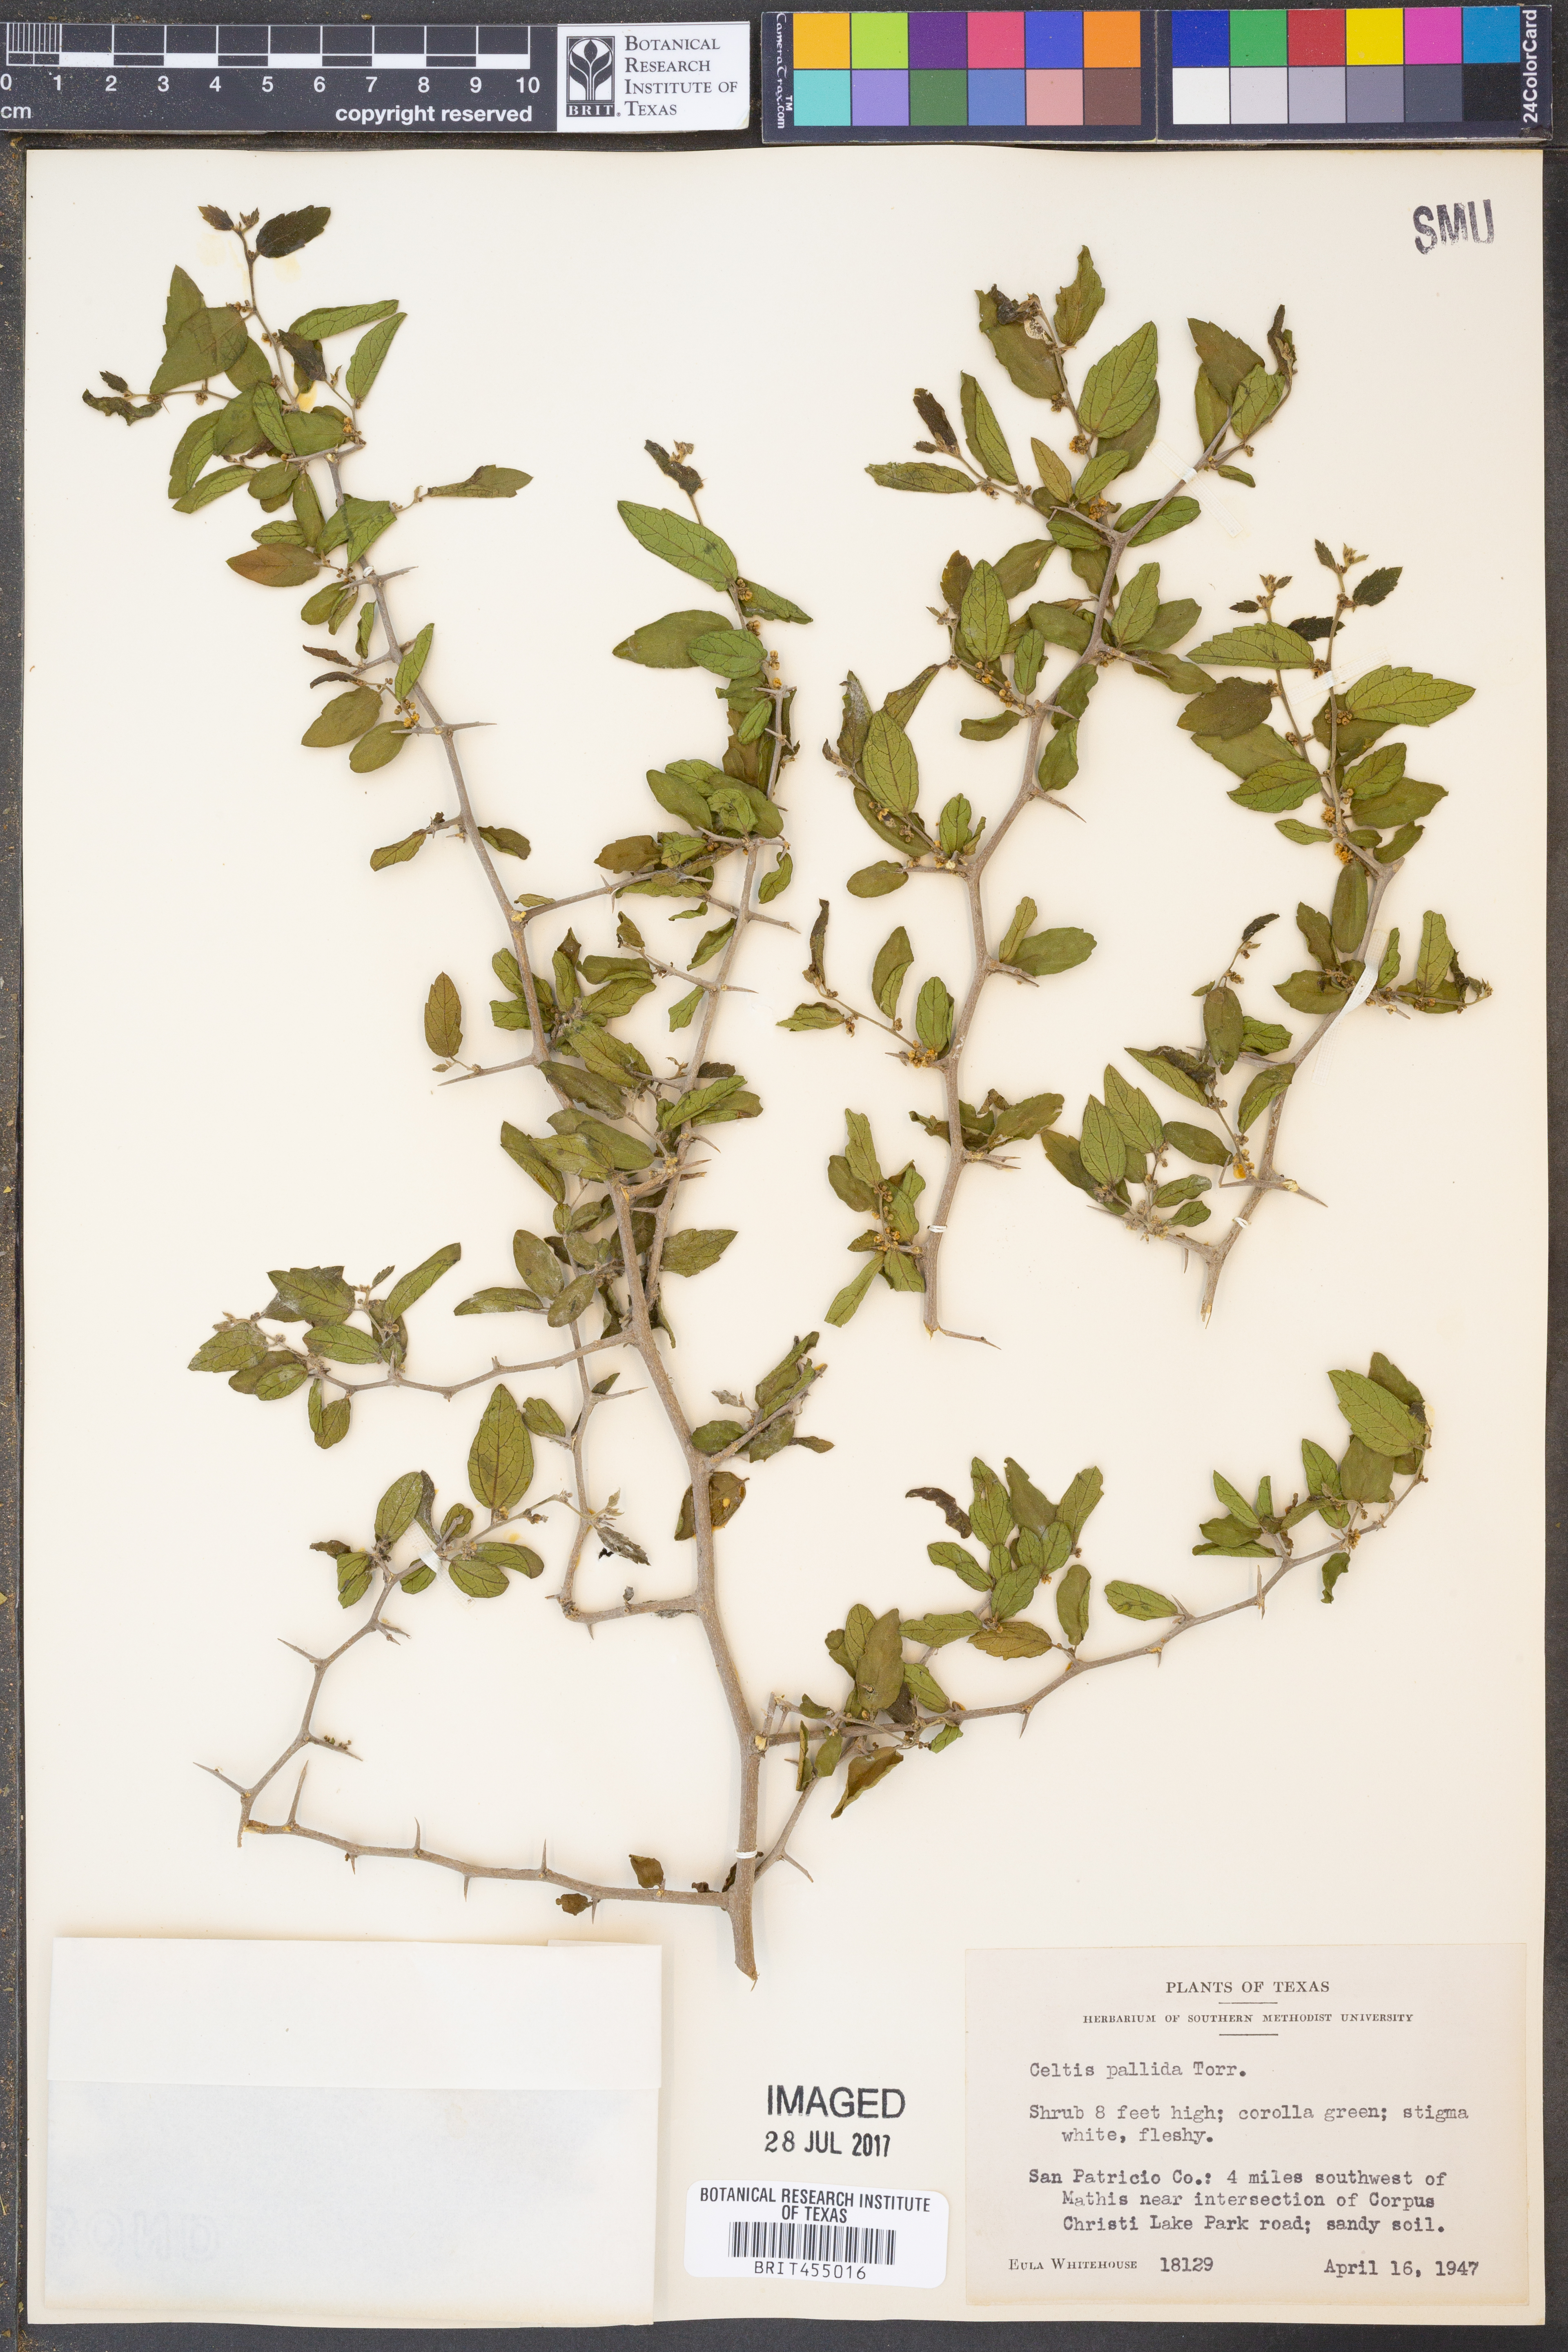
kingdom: Plantae
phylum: Tracheophyta
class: Magnoliopsida
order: Rosales
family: Cannabaceae
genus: Celtis
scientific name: Celtis pallida
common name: Desert hackberry
